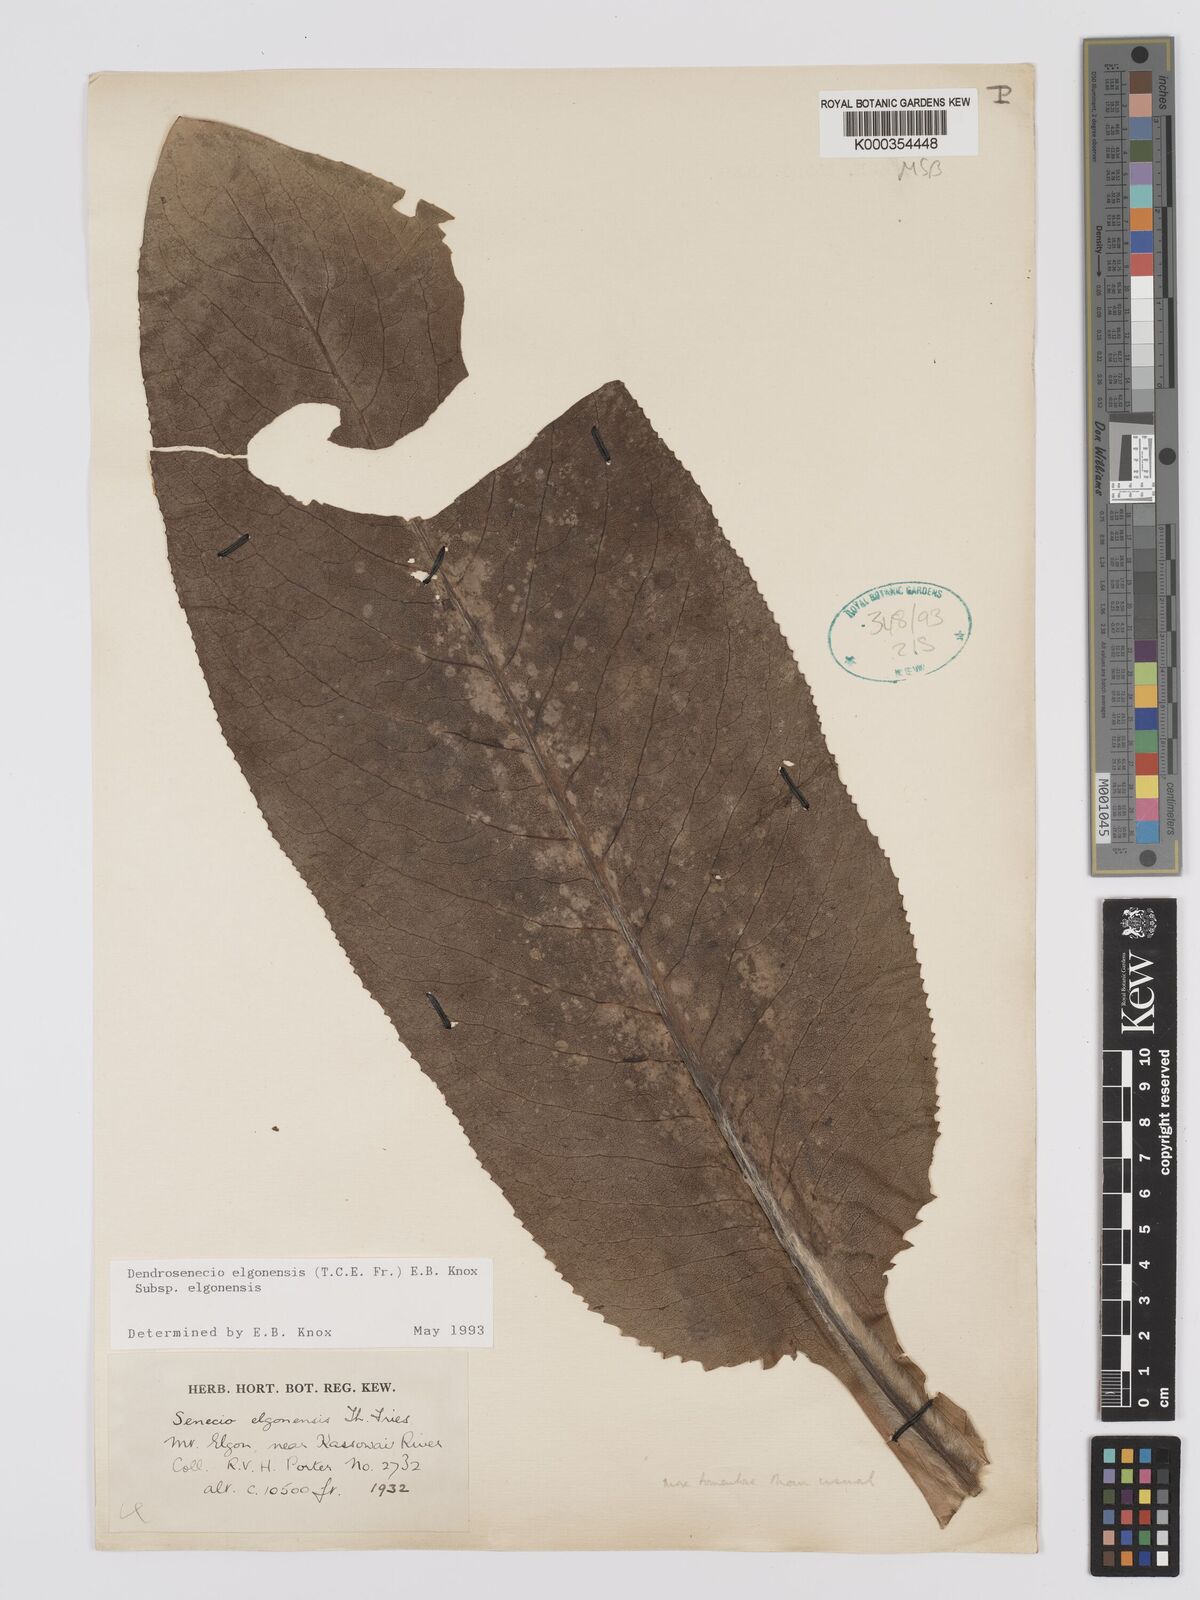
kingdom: Plantae
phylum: Tracheophyta
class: Magnoliopsida
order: Asterales
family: Asteraceae
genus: Dendrosenecio
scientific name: Dendrosenecio elgonensis
